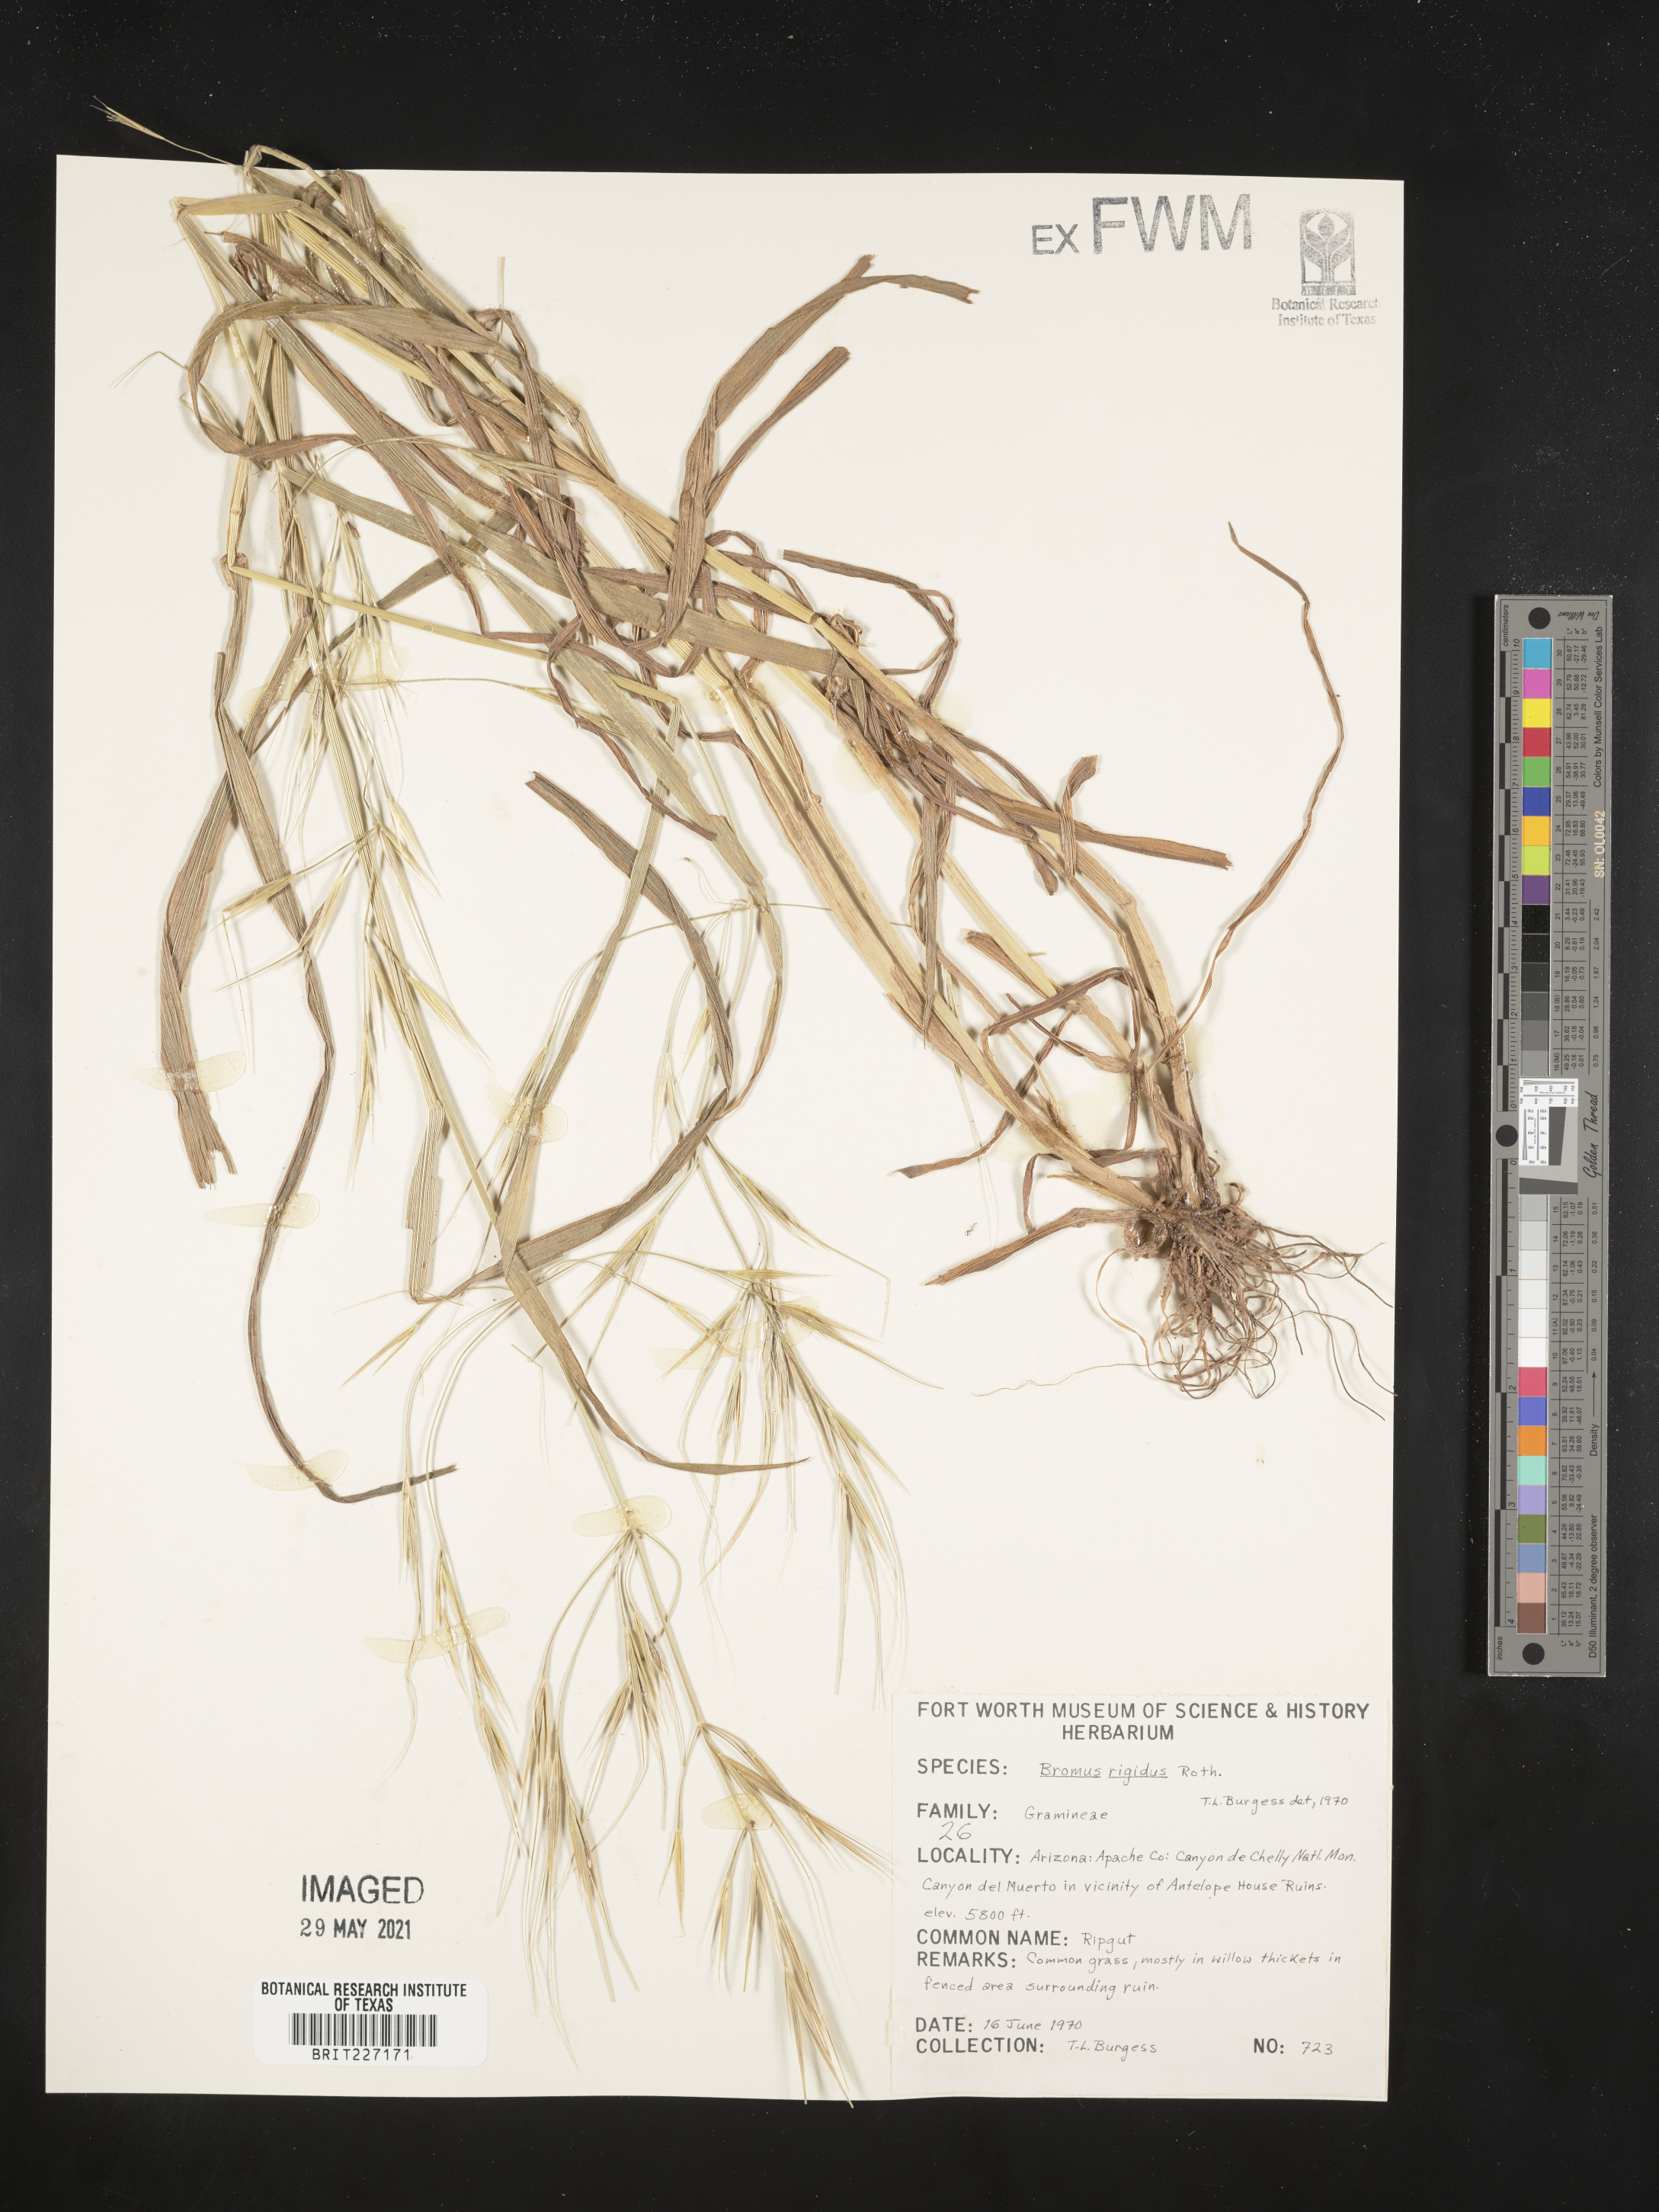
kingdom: Plantae
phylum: Tracheophyta
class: Liliopsida
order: Poales
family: Poaceae
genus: Bromus
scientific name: Bromus rigidus
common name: Ripgut brome
